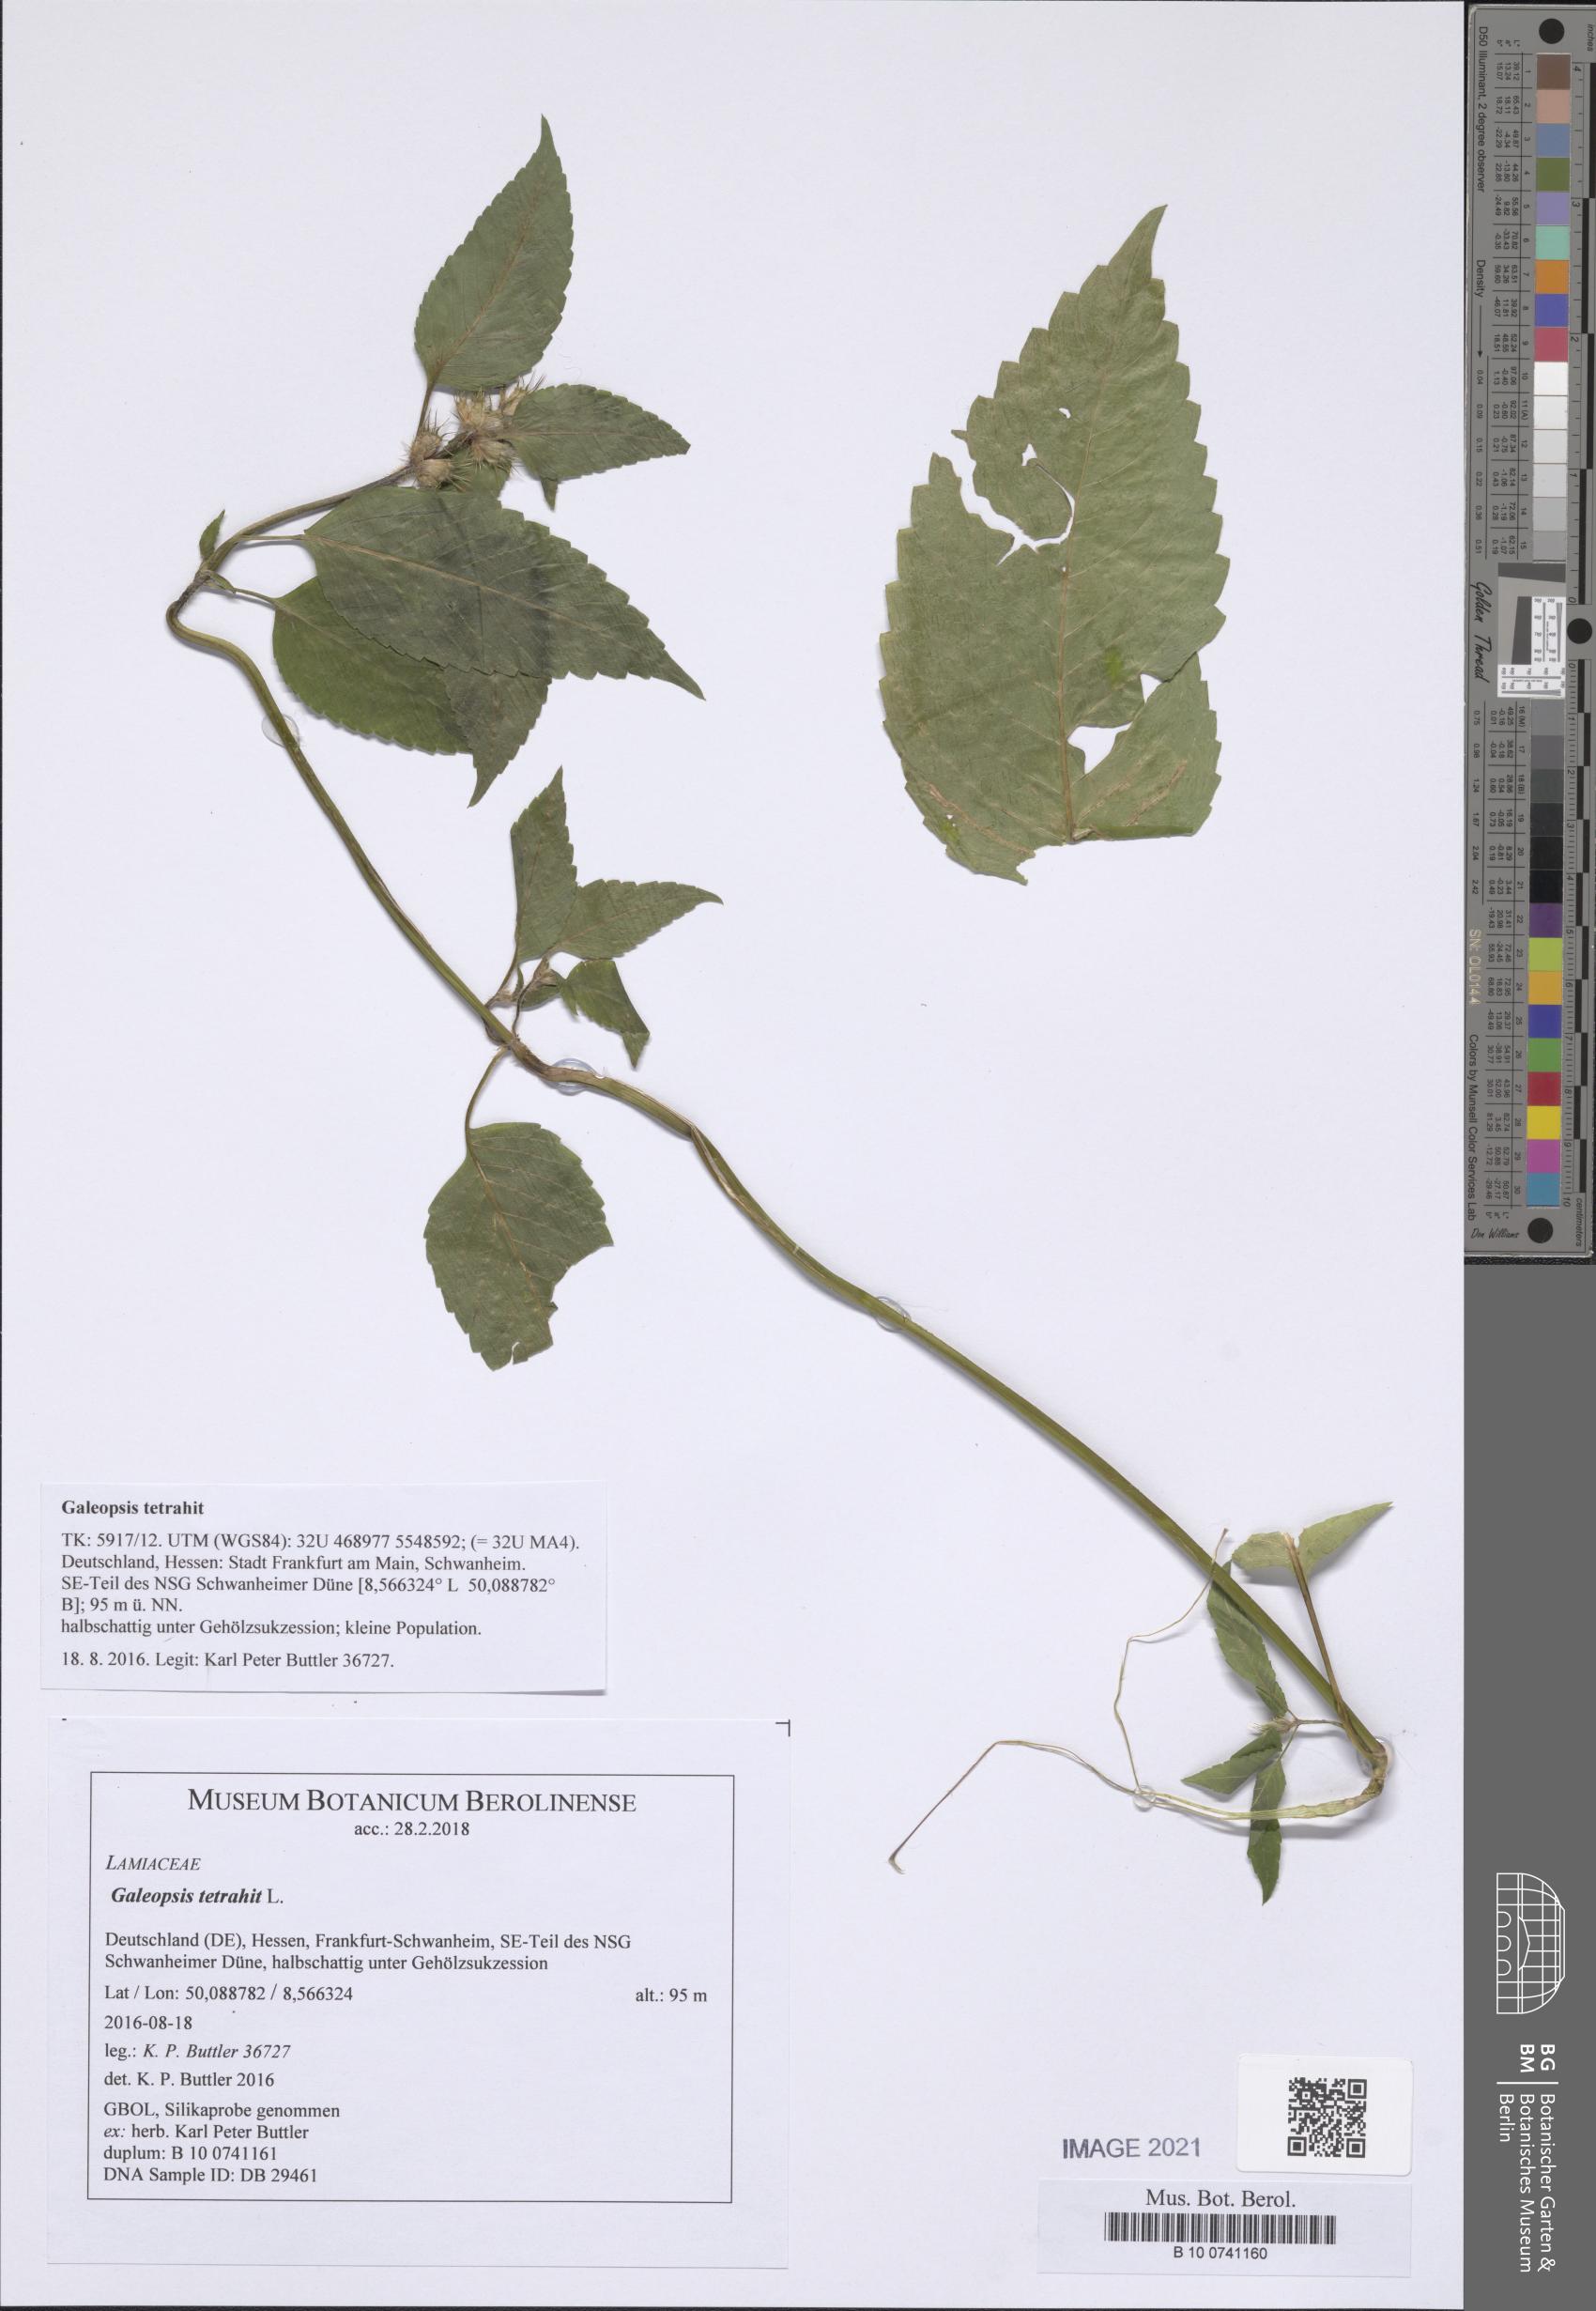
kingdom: Plantae
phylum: Tracheophyta
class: Magnoliopsida
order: Lamiales
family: Lamiaceae
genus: Galeopsis
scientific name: Galeopsis tetrahit
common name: Common hemp-nettle
